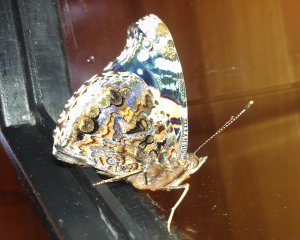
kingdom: Animalia
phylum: Arthropoda
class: Insecta
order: Lepidoptera
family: Nymphalidae
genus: Vanessa
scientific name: Vanessa atalanta
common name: Red Admiral
